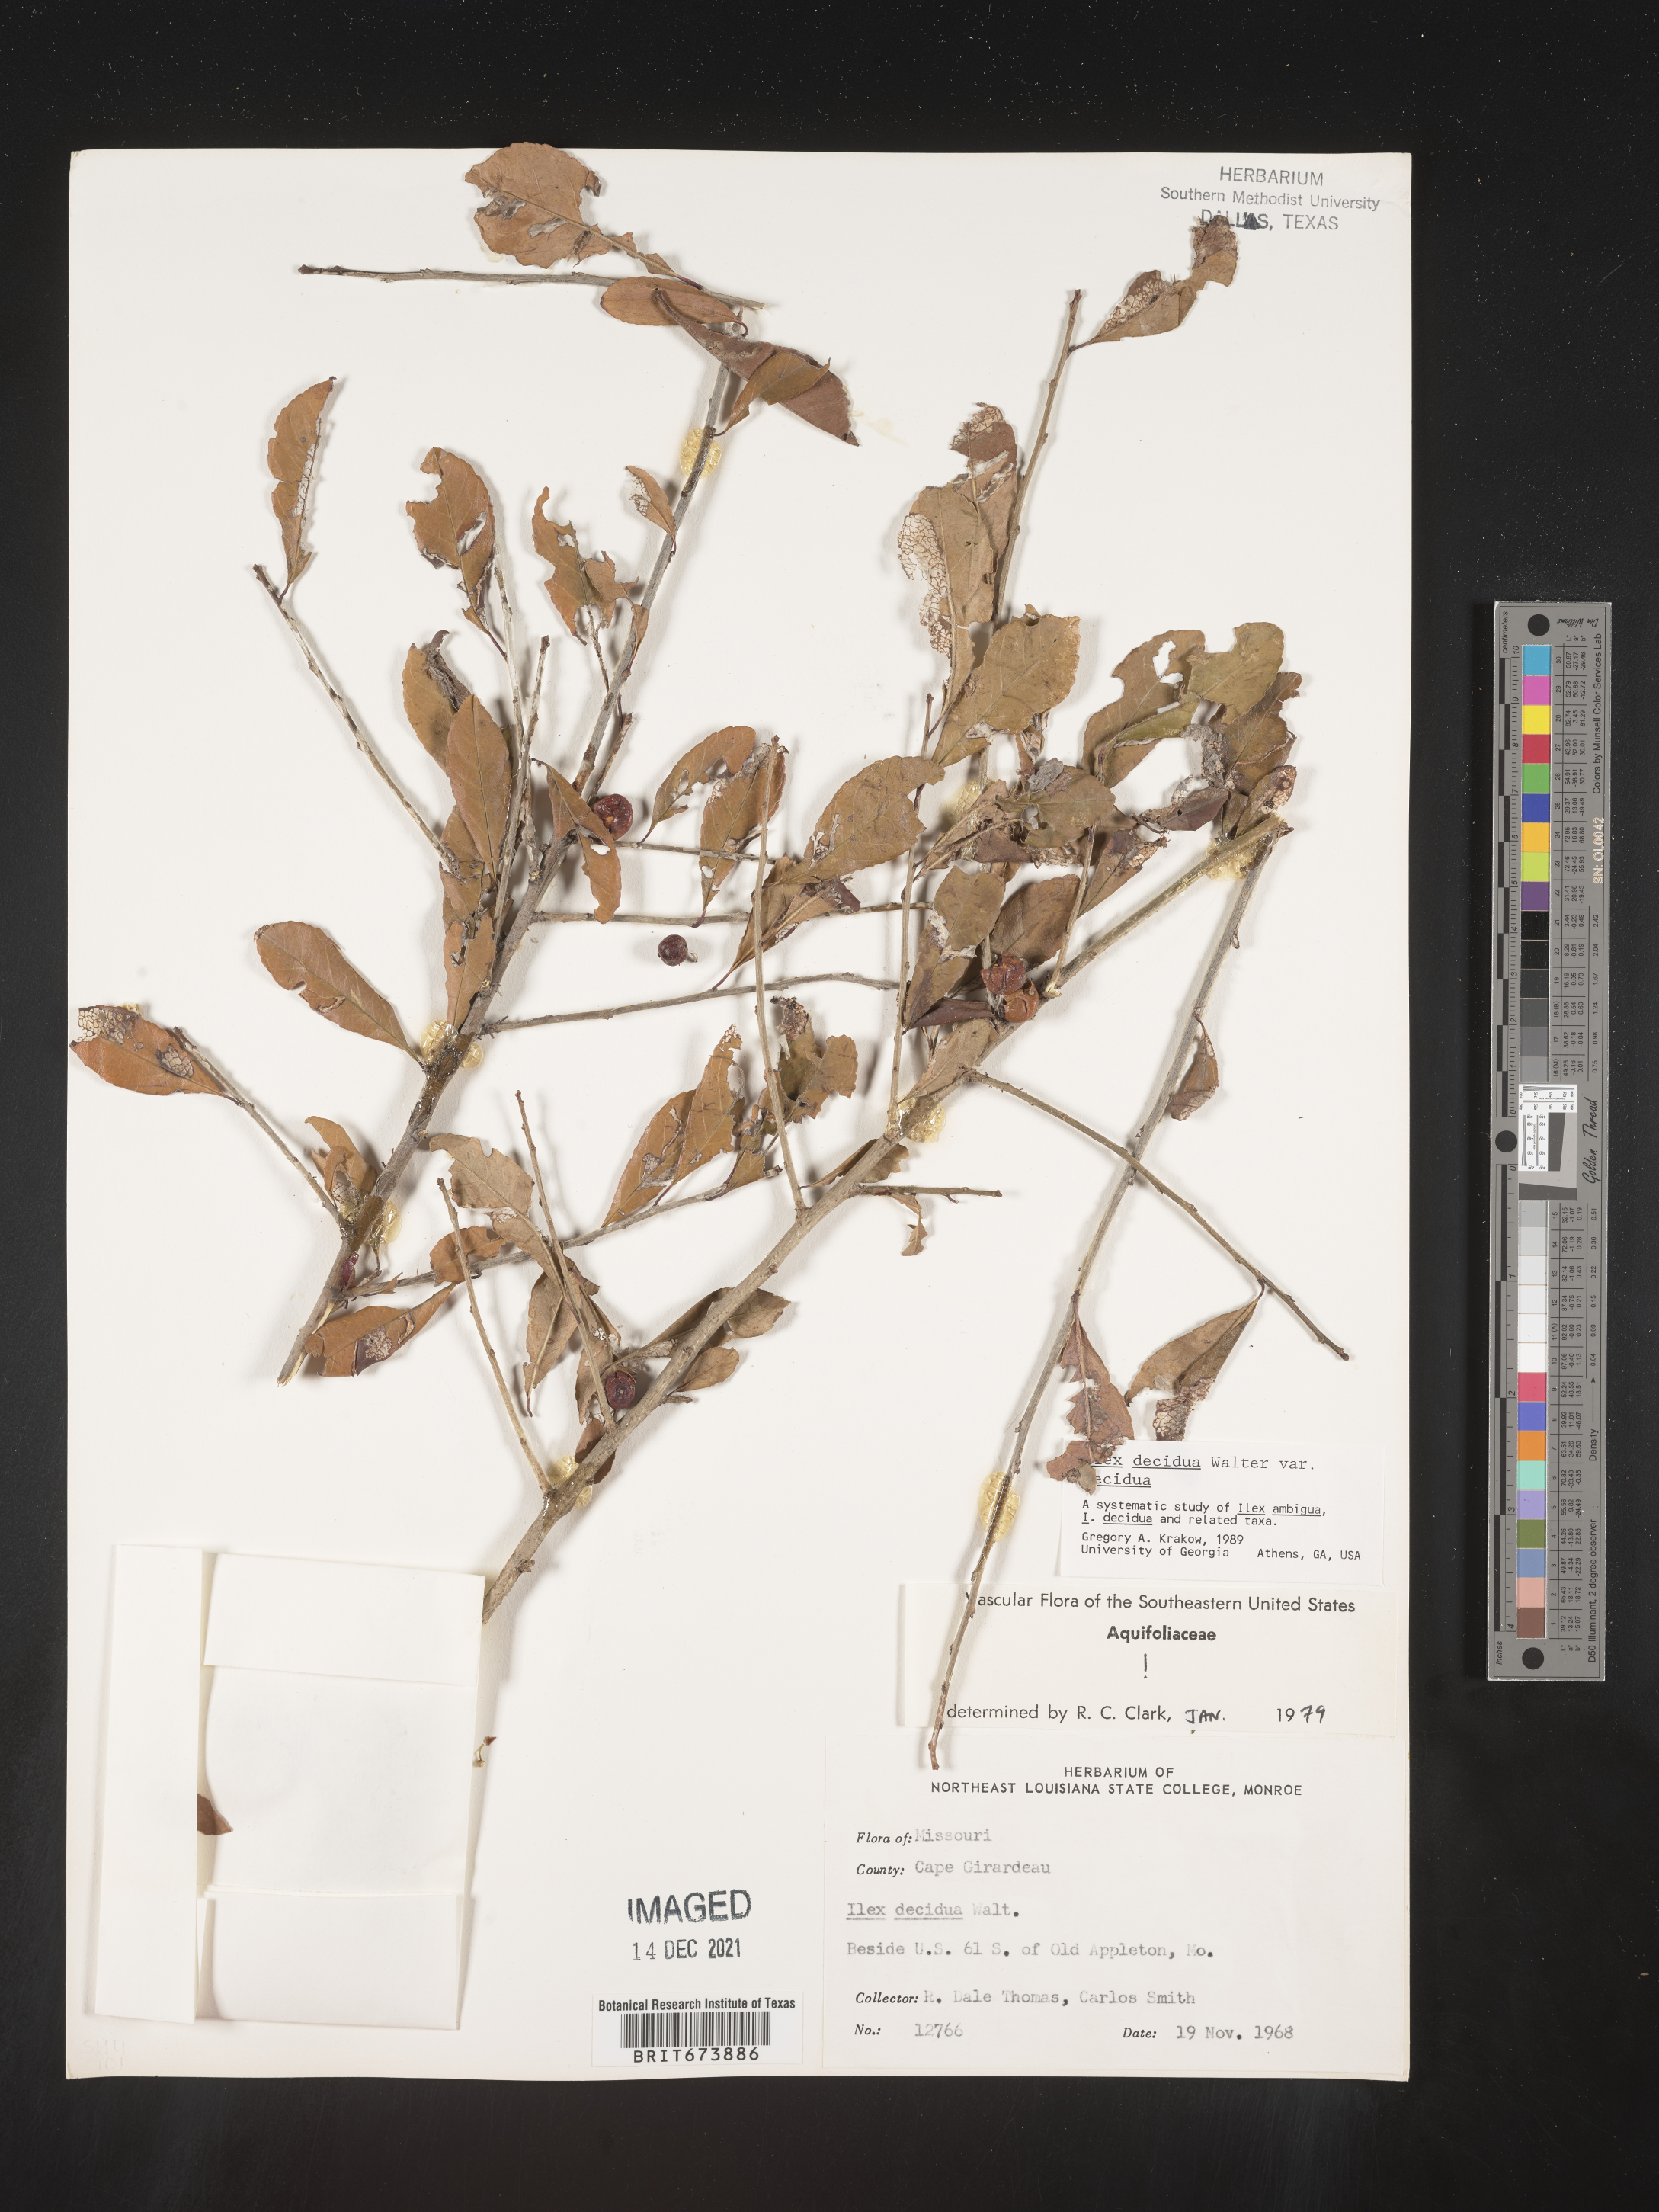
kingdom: Plantae
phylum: Tracheophyta
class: Magnoliopsida
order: Aquifoliales
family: Aquifoliaceae
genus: Ilex
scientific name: Ilex decidua
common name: Possum-haw
